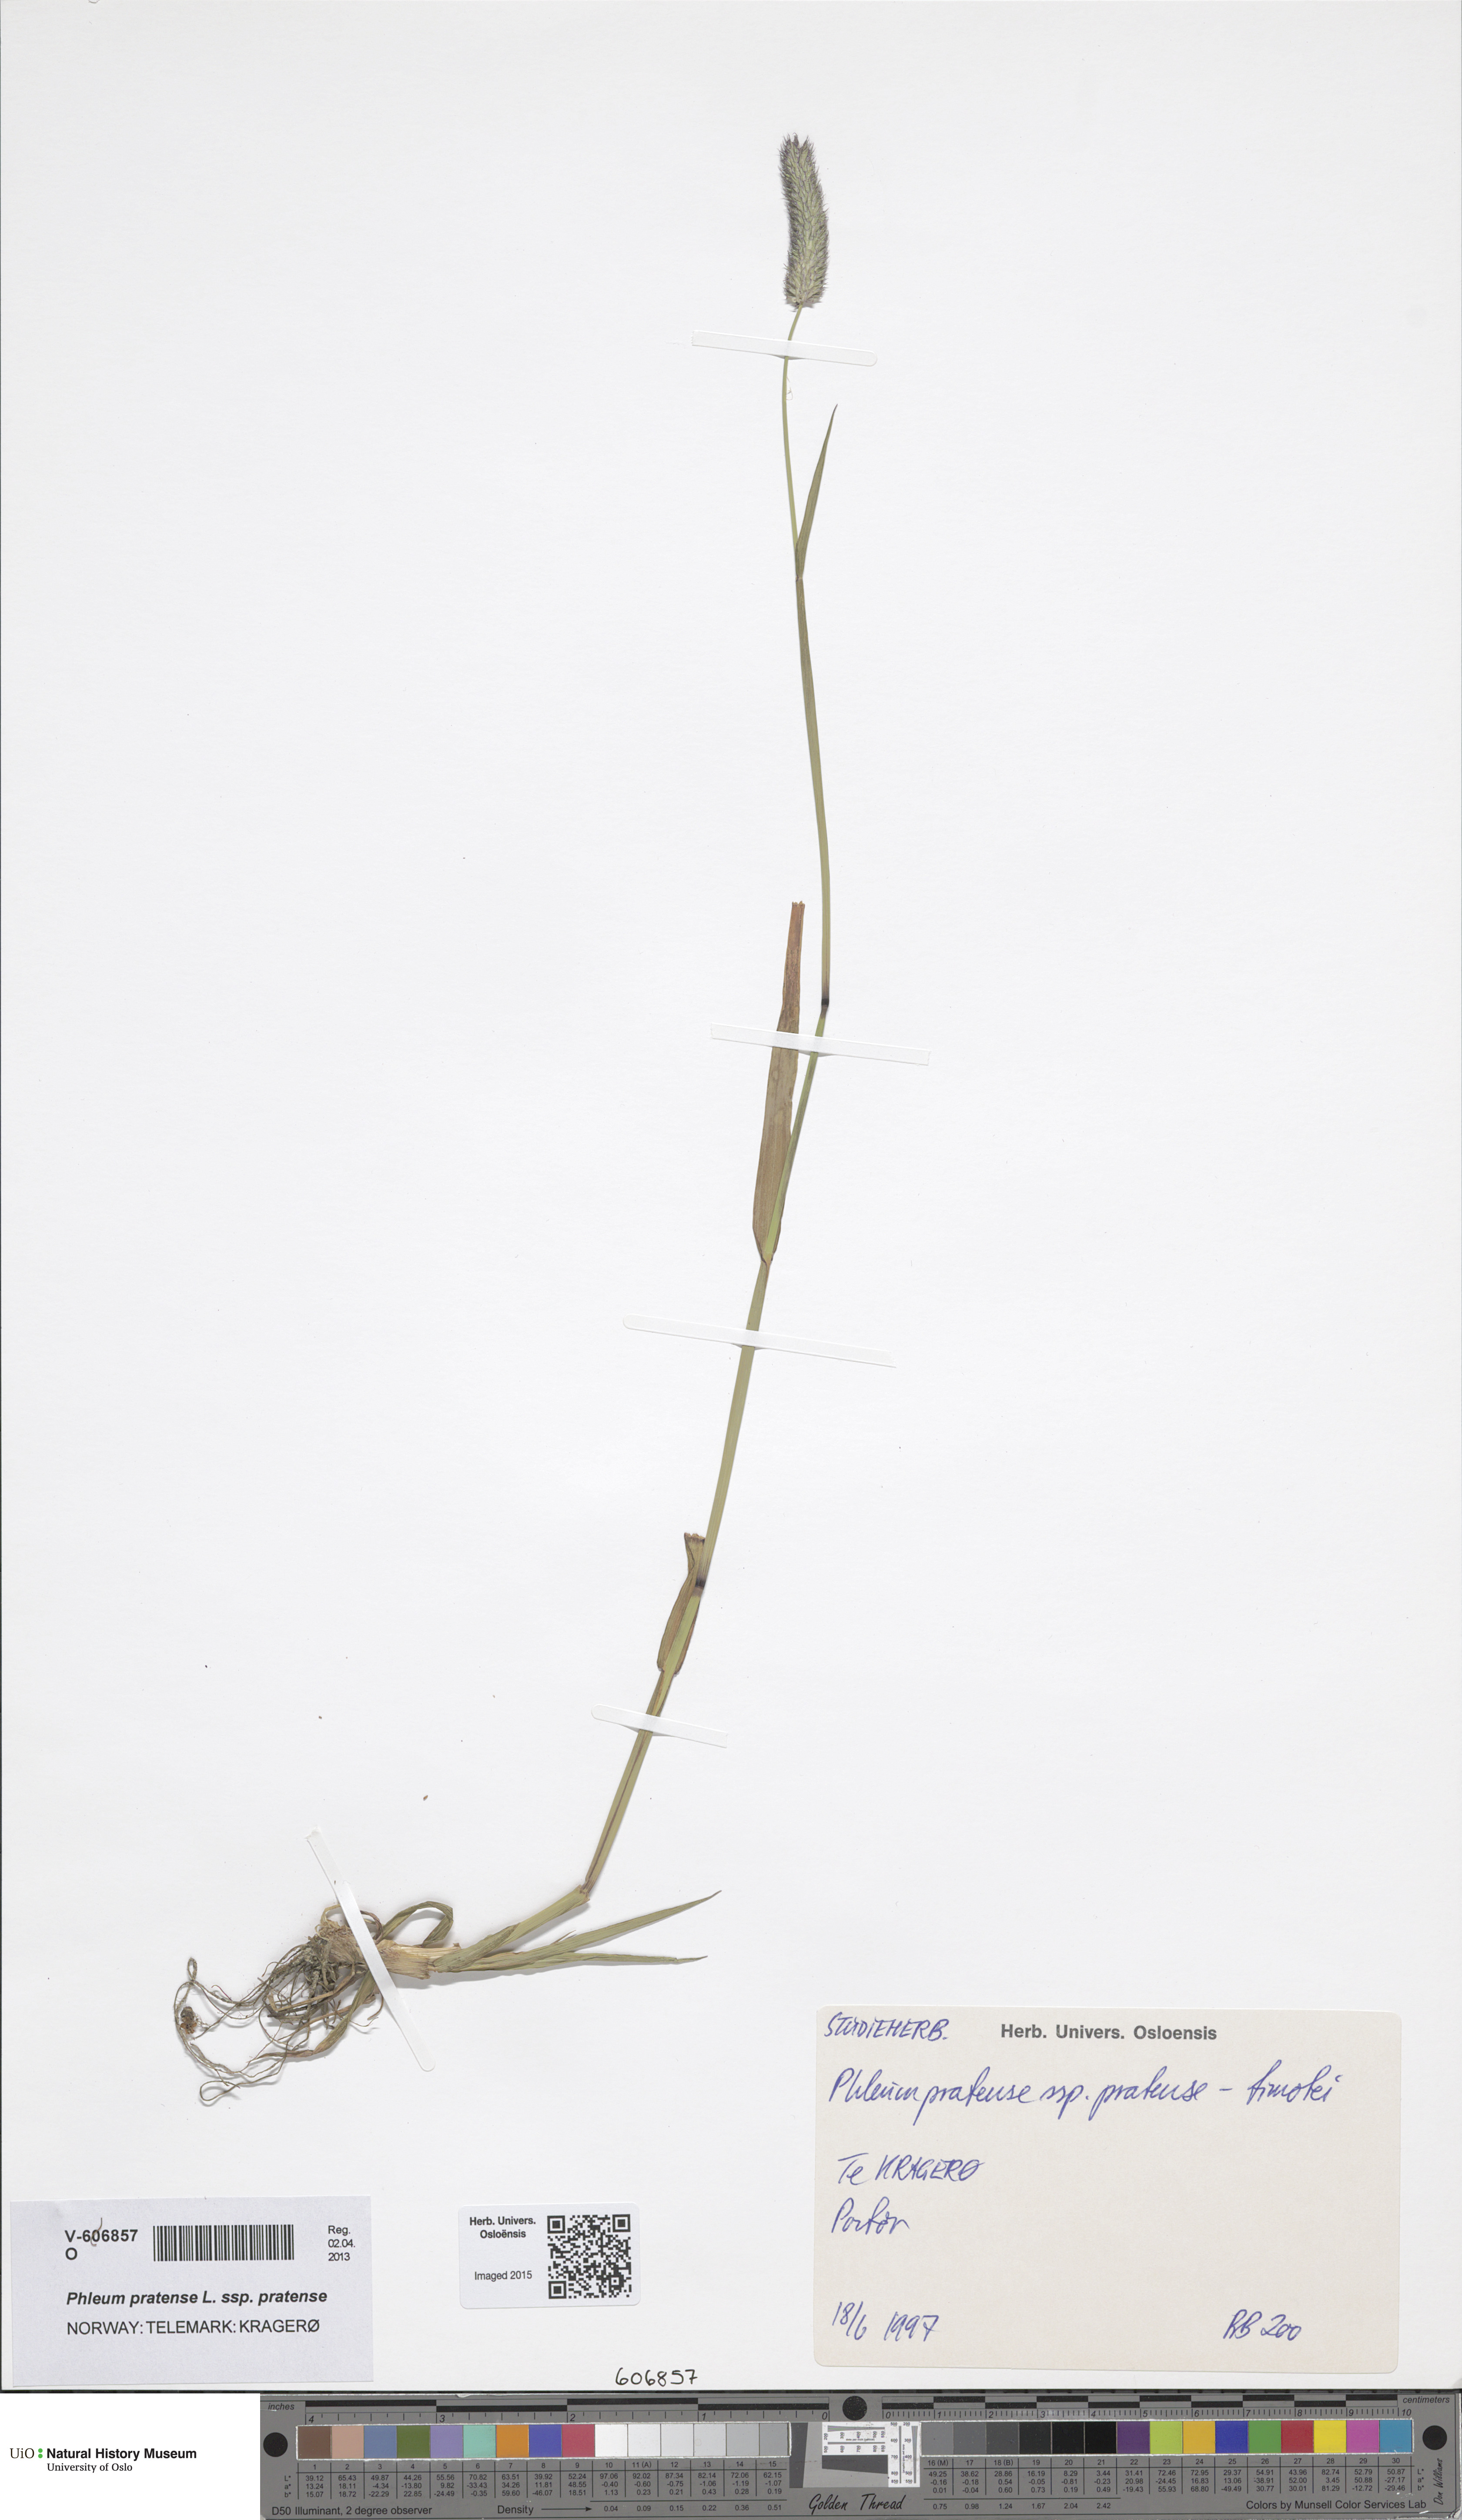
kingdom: Plantae
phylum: Tracheophyta
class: Liliopsida
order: Poales
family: Poaceae
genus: Phleum
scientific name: Phleum pratense
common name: Timothy grass
